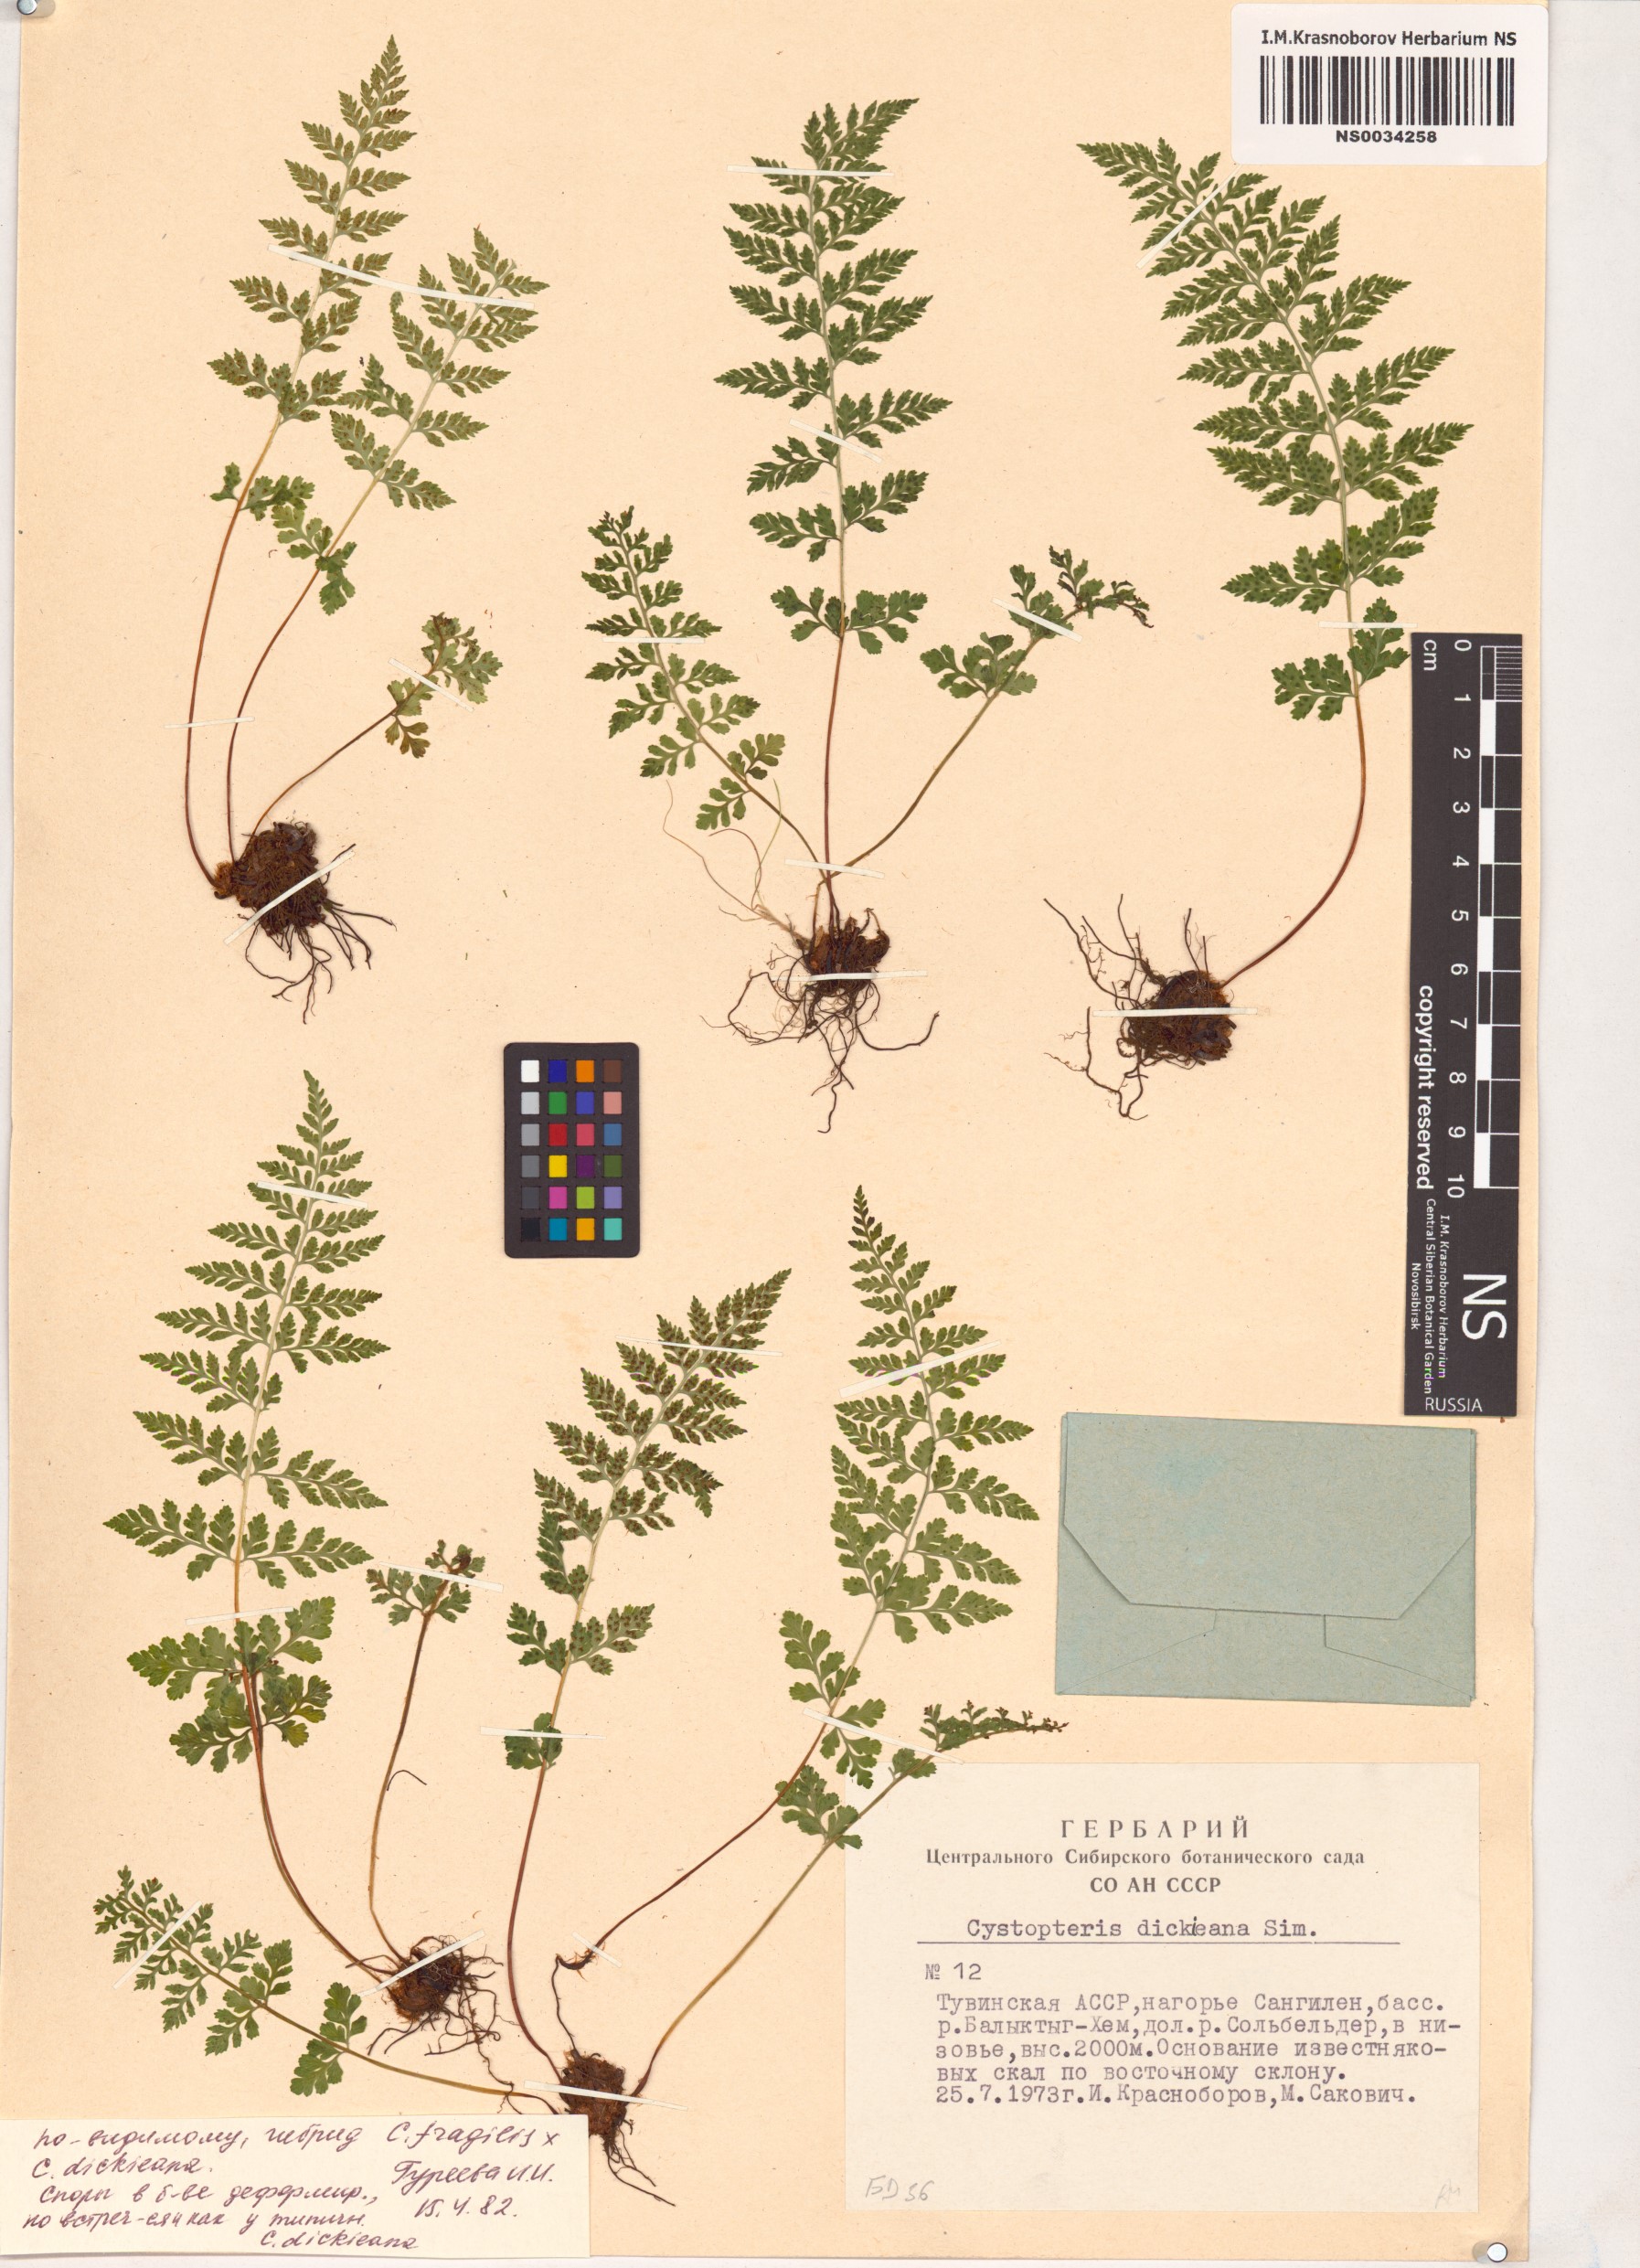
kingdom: Plantae
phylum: Tracheophyta
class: Polypodiopsida
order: Polypodiales
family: Cystopteridaceae
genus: Cystopteris
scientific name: Cystopteris dickieana
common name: Dickie's bladder-fern
